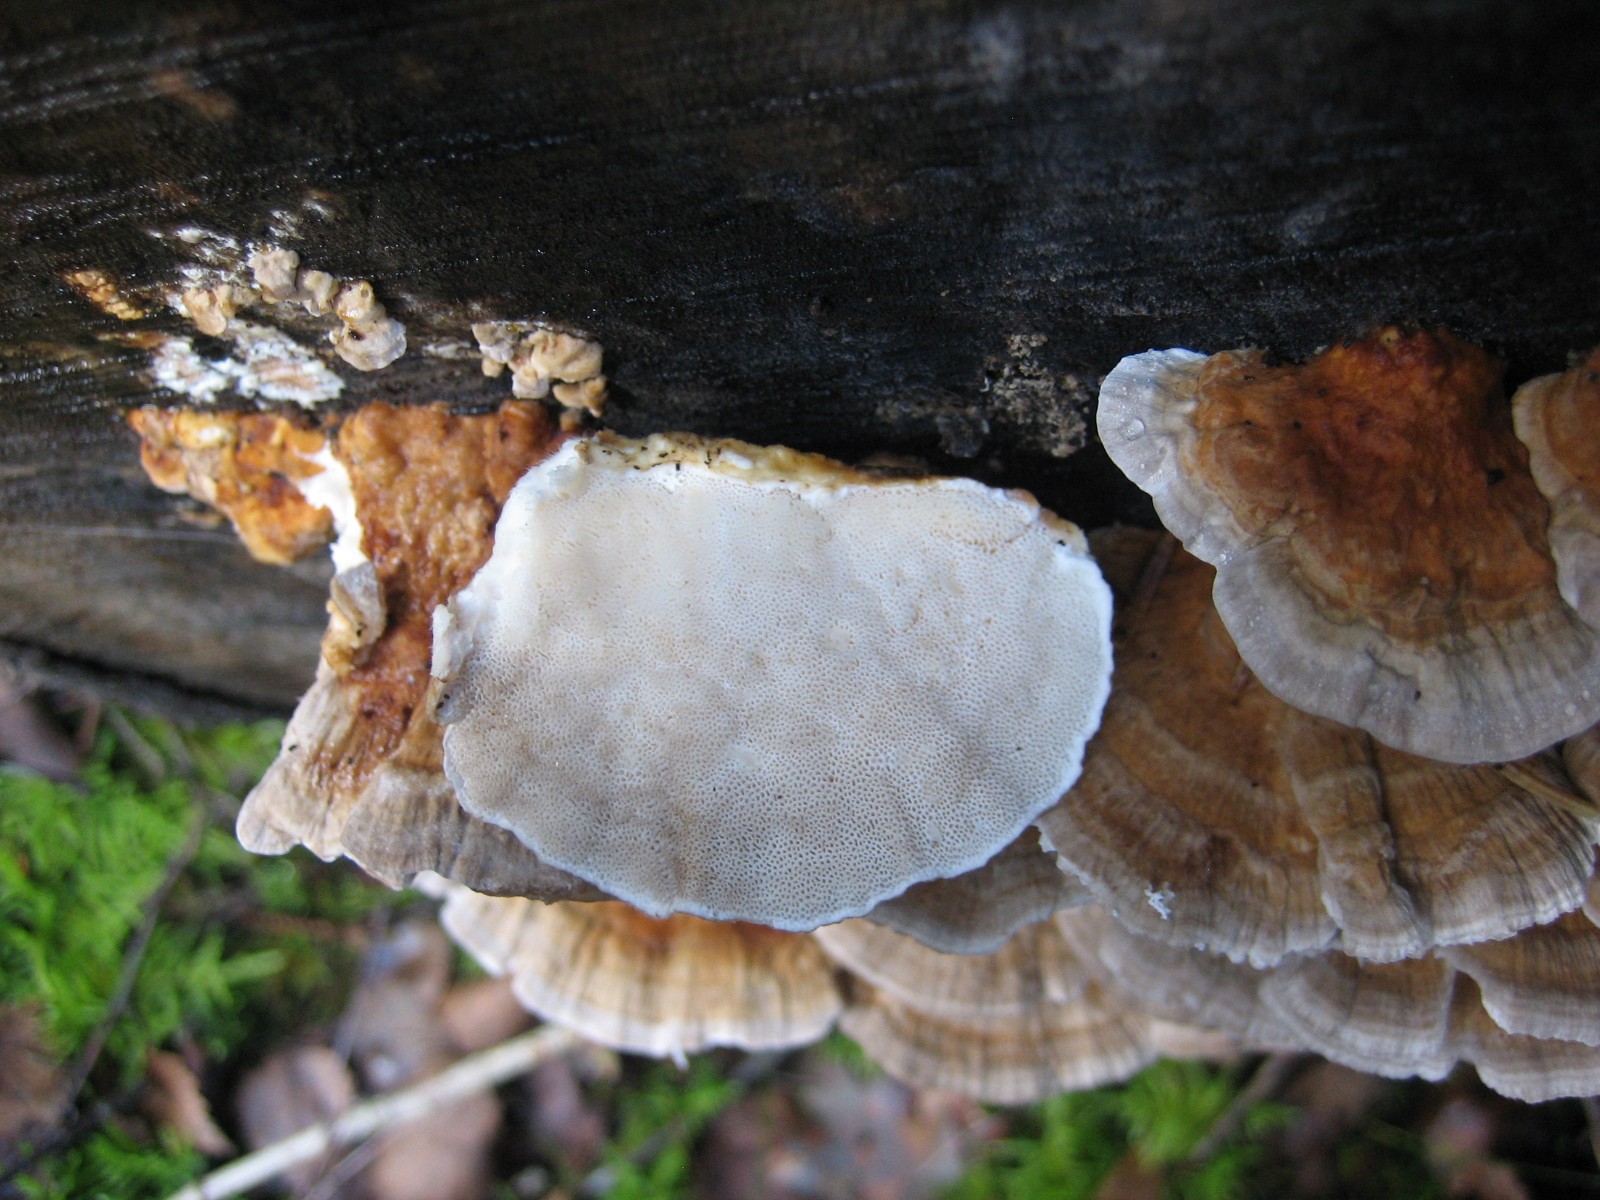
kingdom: Fungi
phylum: Basidiomycota
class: Agaricomycetes
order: Polyporales
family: Polyporaceae
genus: Trametes
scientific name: Trametes ochracea
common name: bæltet læderporesvamp
